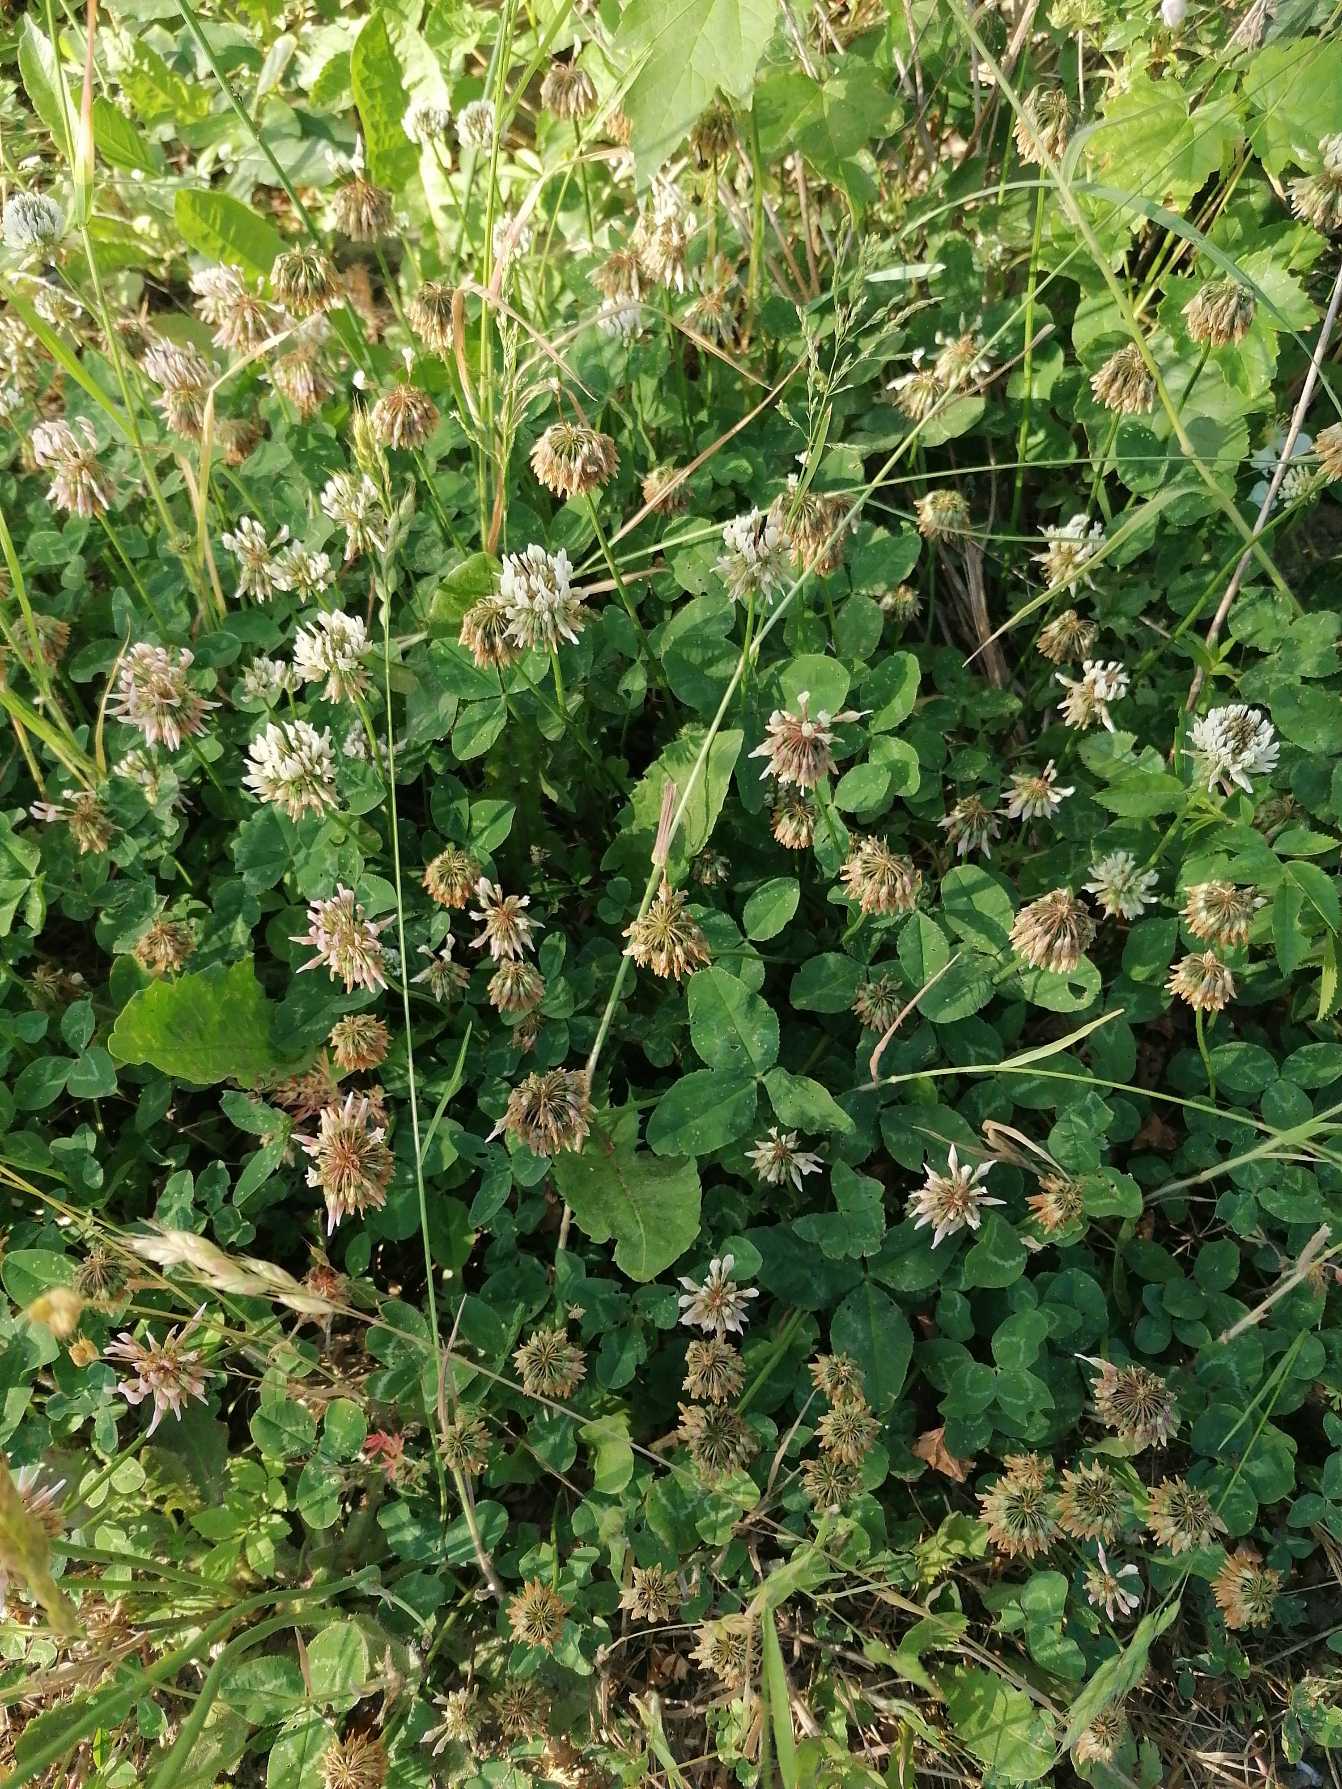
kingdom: Plantae
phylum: Tracheophyta
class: Magnoliopsida
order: Fabales
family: Fabaceae
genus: Trifolium
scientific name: Trifolium repens
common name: Hvid-kløver
